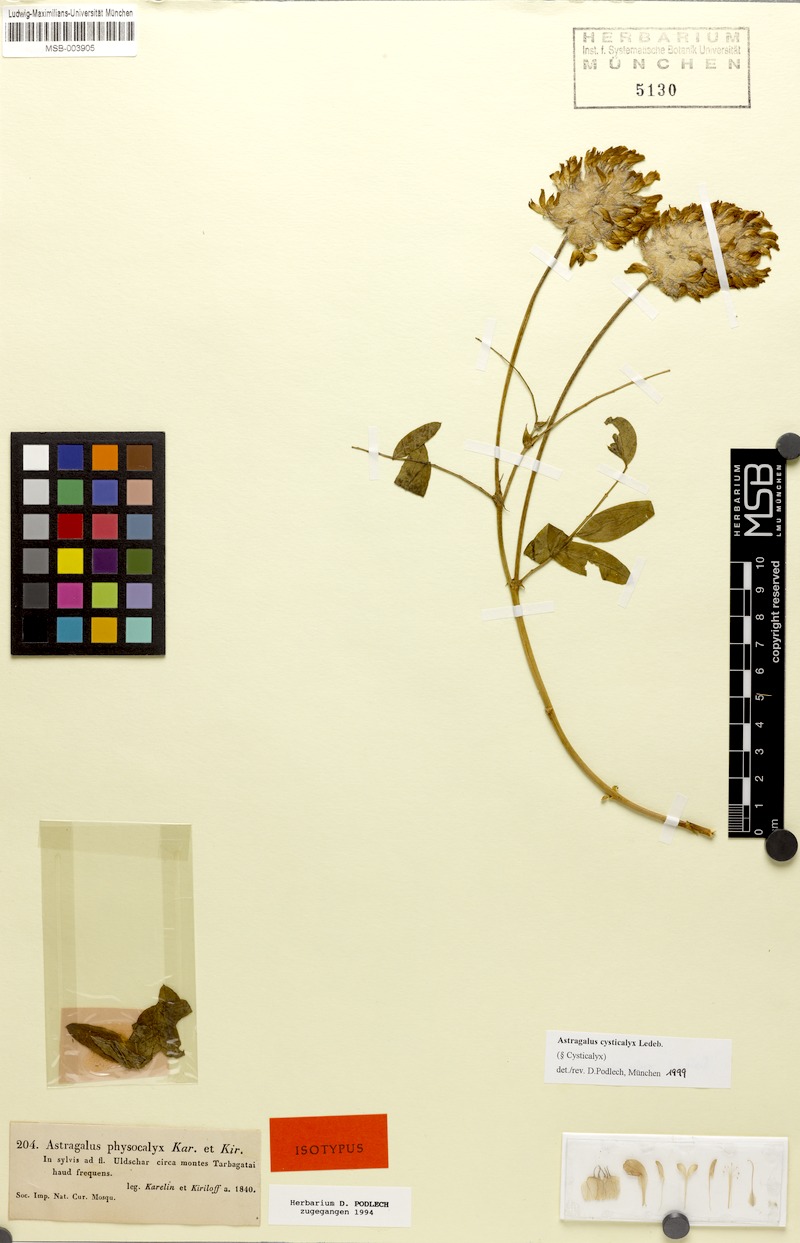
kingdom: Plantae
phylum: Tracheophyta
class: Magnoliopsida
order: Fabales
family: Fabaceae
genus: Astragalus
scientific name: Astragalus cysticalyx
